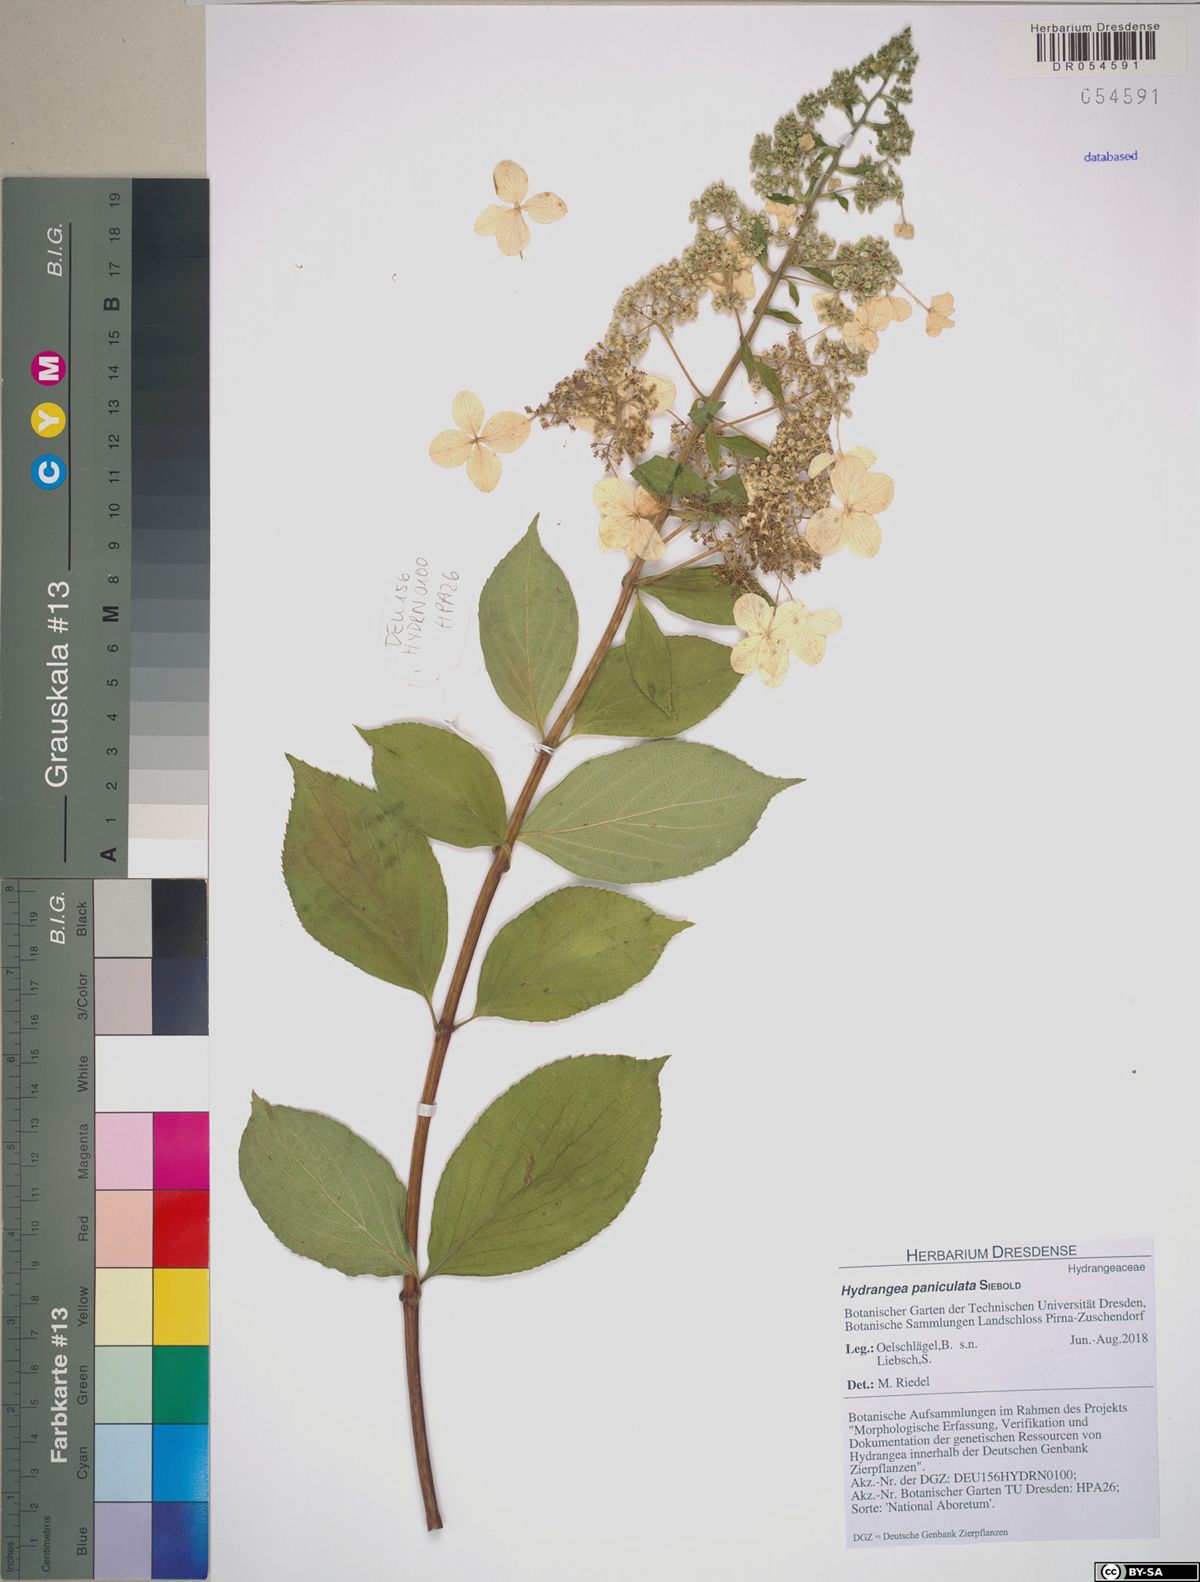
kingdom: Plantae
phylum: Tracheophyta
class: Magnoliopsida
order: Cornales
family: Hydrangeaceae
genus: Hydrangea
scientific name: Hydrangea paniculata
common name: Panicled hydrangea
